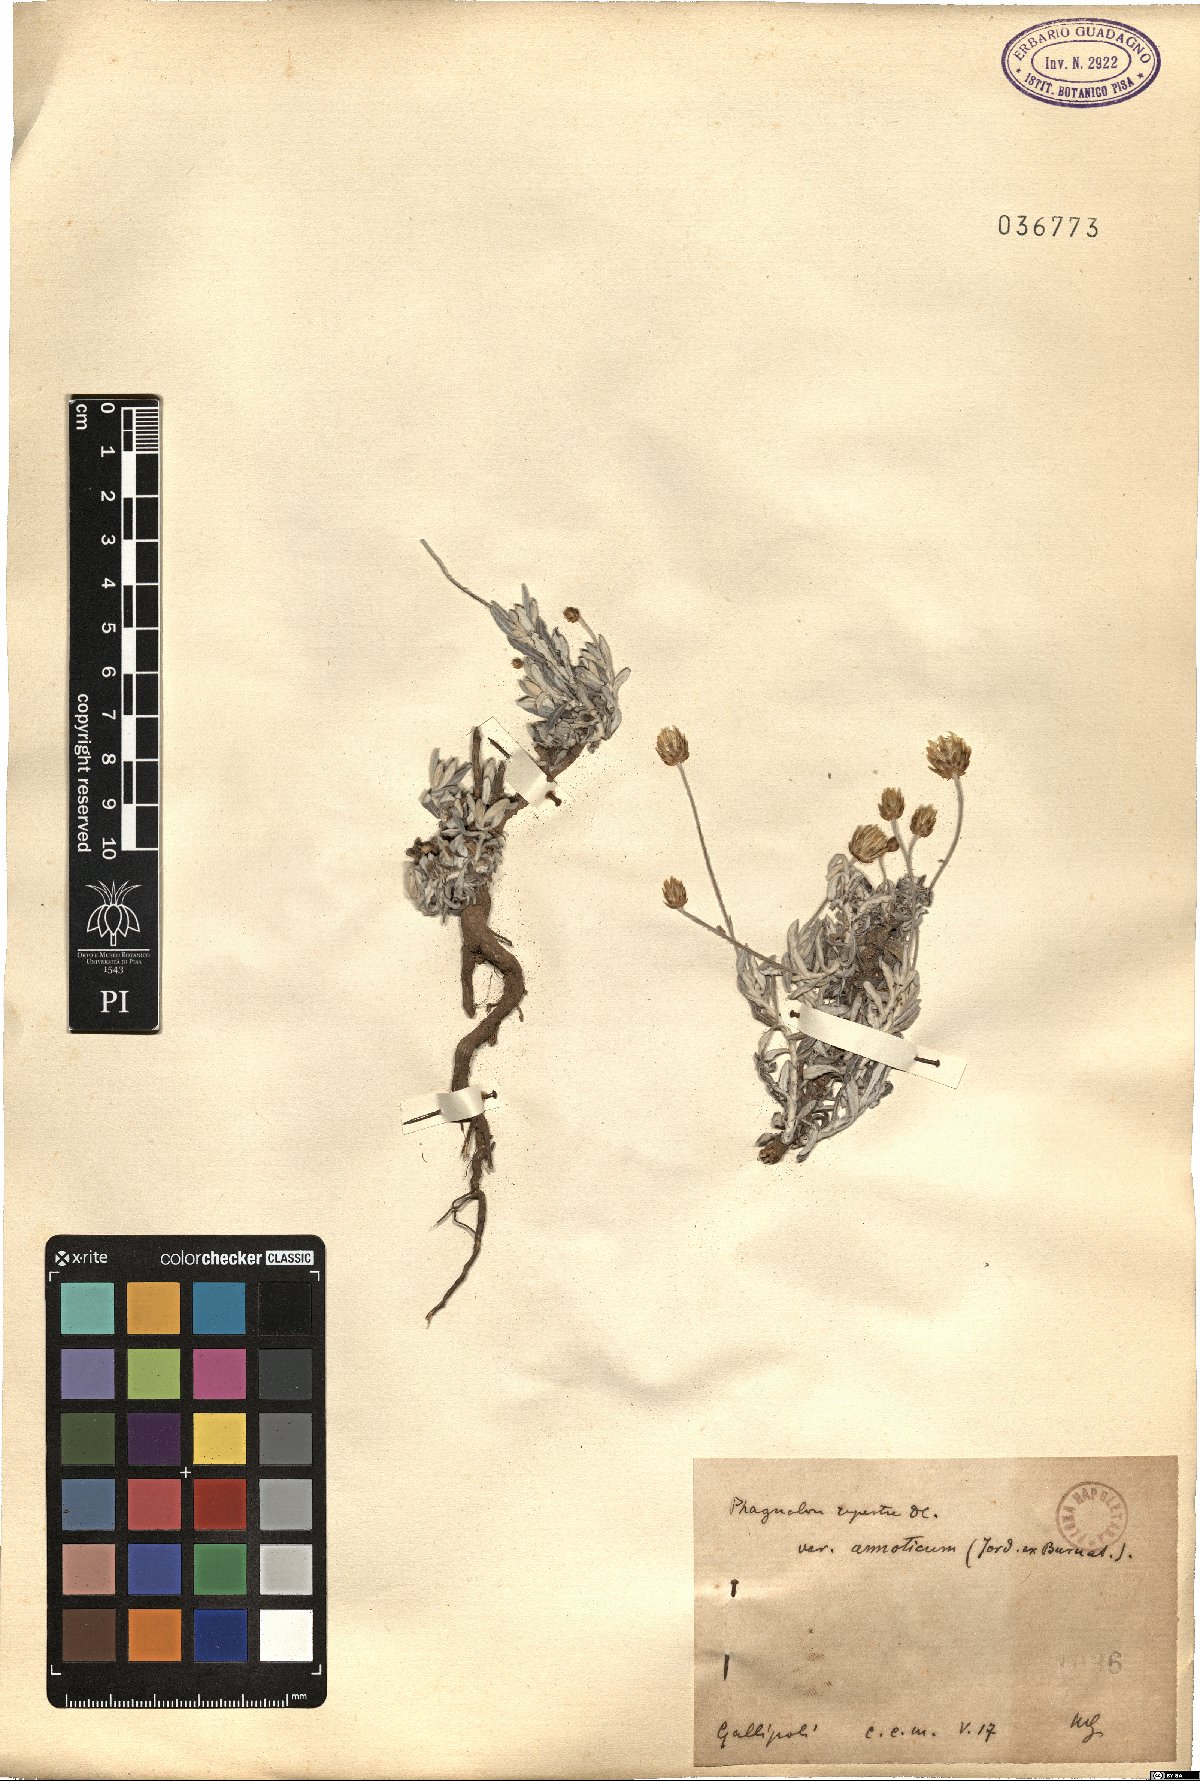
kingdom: Plantae
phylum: Tracheophyta
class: Magnoliopsida
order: Asterales
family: Asteraceae
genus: Phagnalon
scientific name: Phagnalon rupestre
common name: Rock phagnalon
